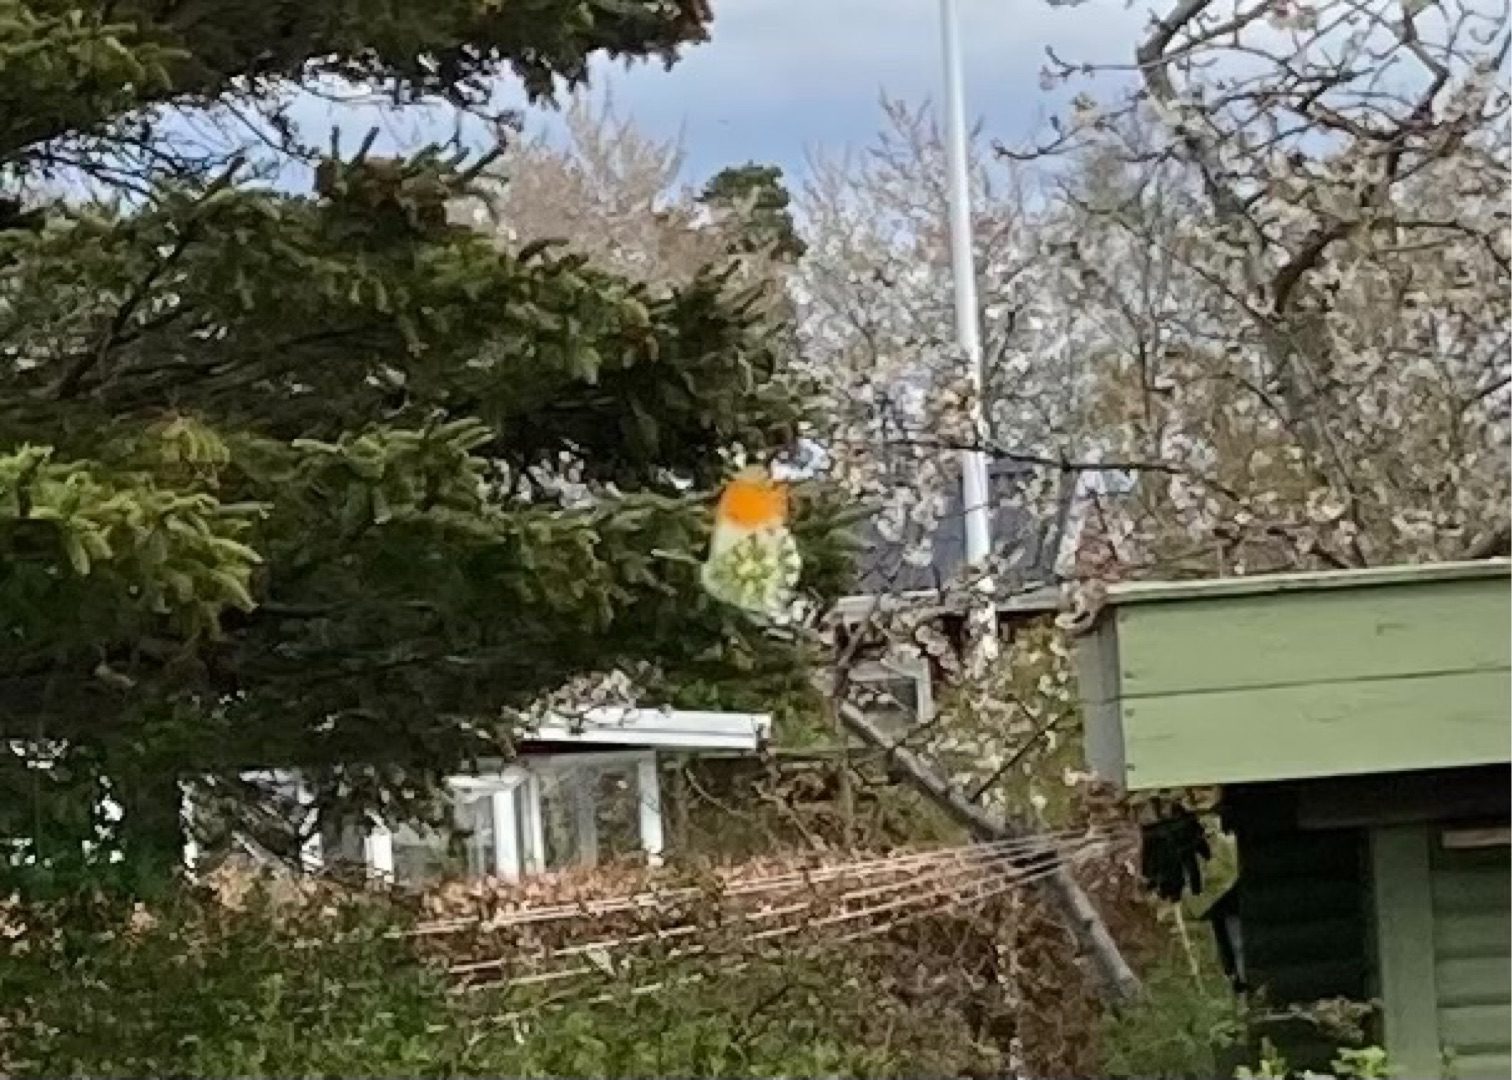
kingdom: Animalia
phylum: Arthropoda
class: Insecta
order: Lepidoptera
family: Pieridae
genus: Anthocharis
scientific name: Anthocharis cardamines
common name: Aurora
